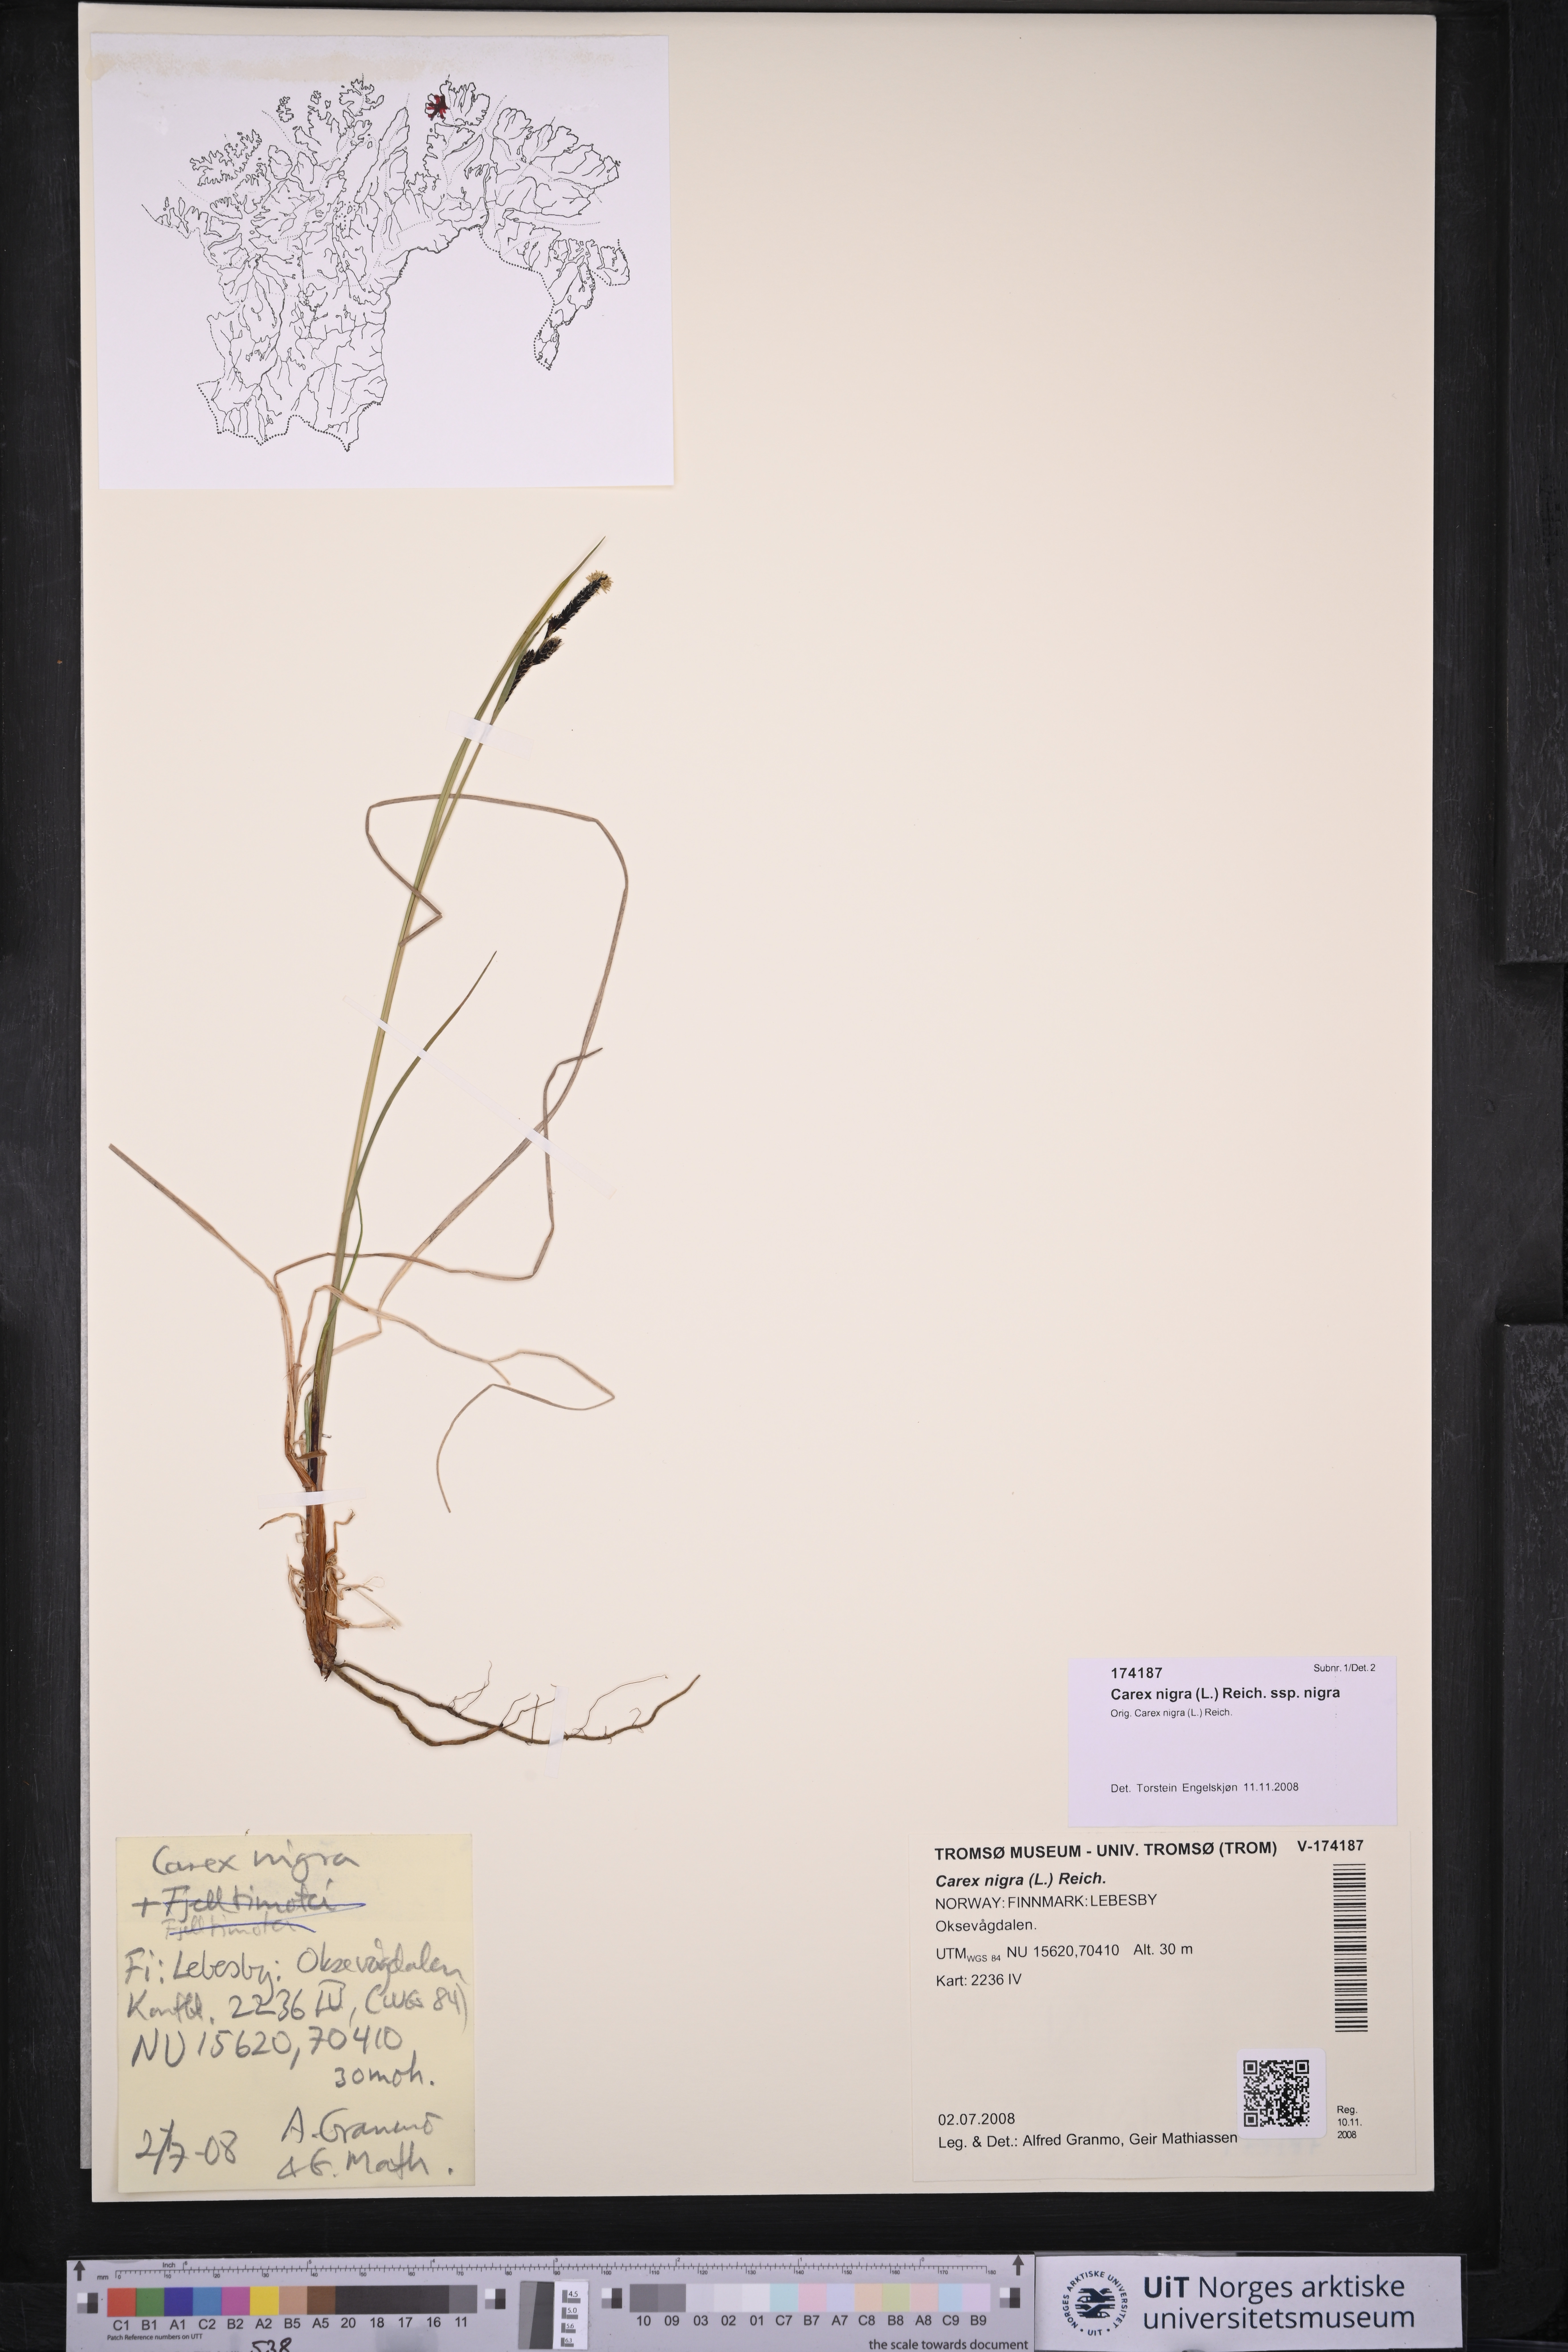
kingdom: Plantae
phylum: Tracheophyta
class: Liliopsida
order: Poales
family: Cyperaceae
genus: Carex
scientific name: Carex nigra
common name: Common sedge
